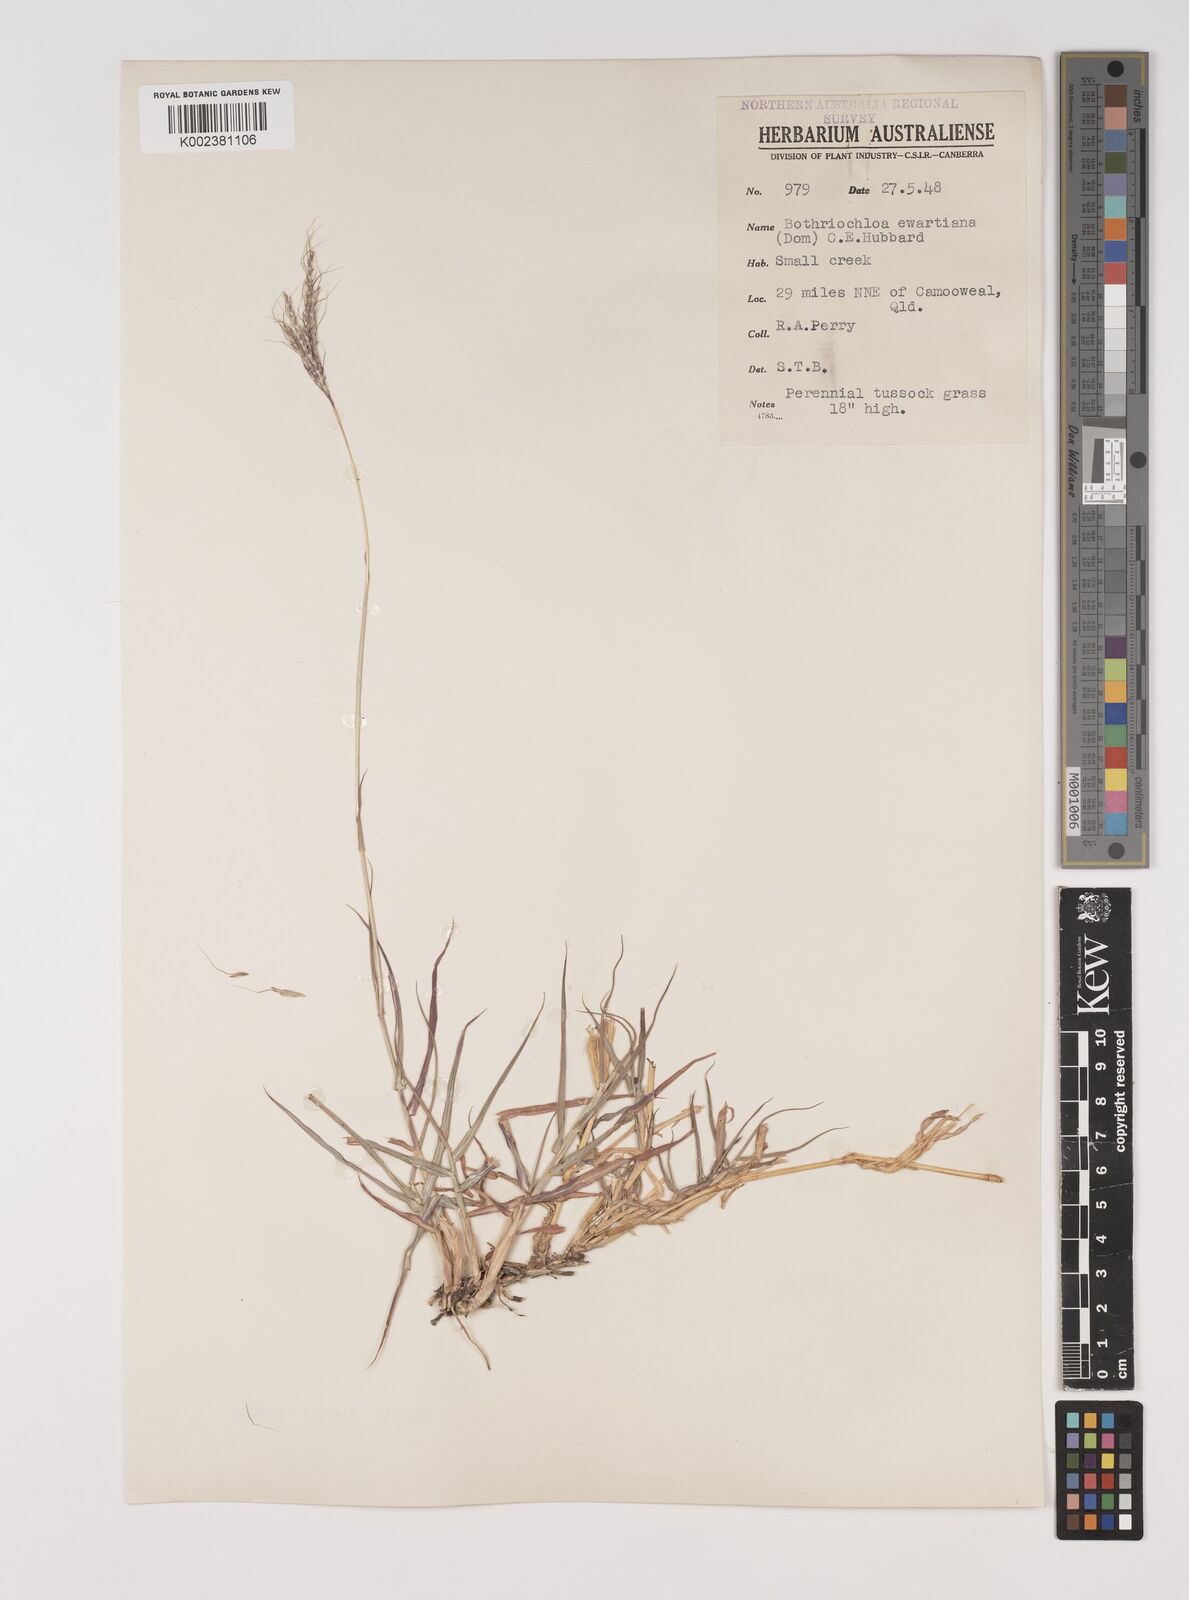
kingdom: Plantae
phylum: Tracheophyta
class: Liliopsida
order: Poales
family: Poaceae
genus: Bothriochloa
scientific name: Bothriochloa ewartiana
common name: Desert-bluegrass
